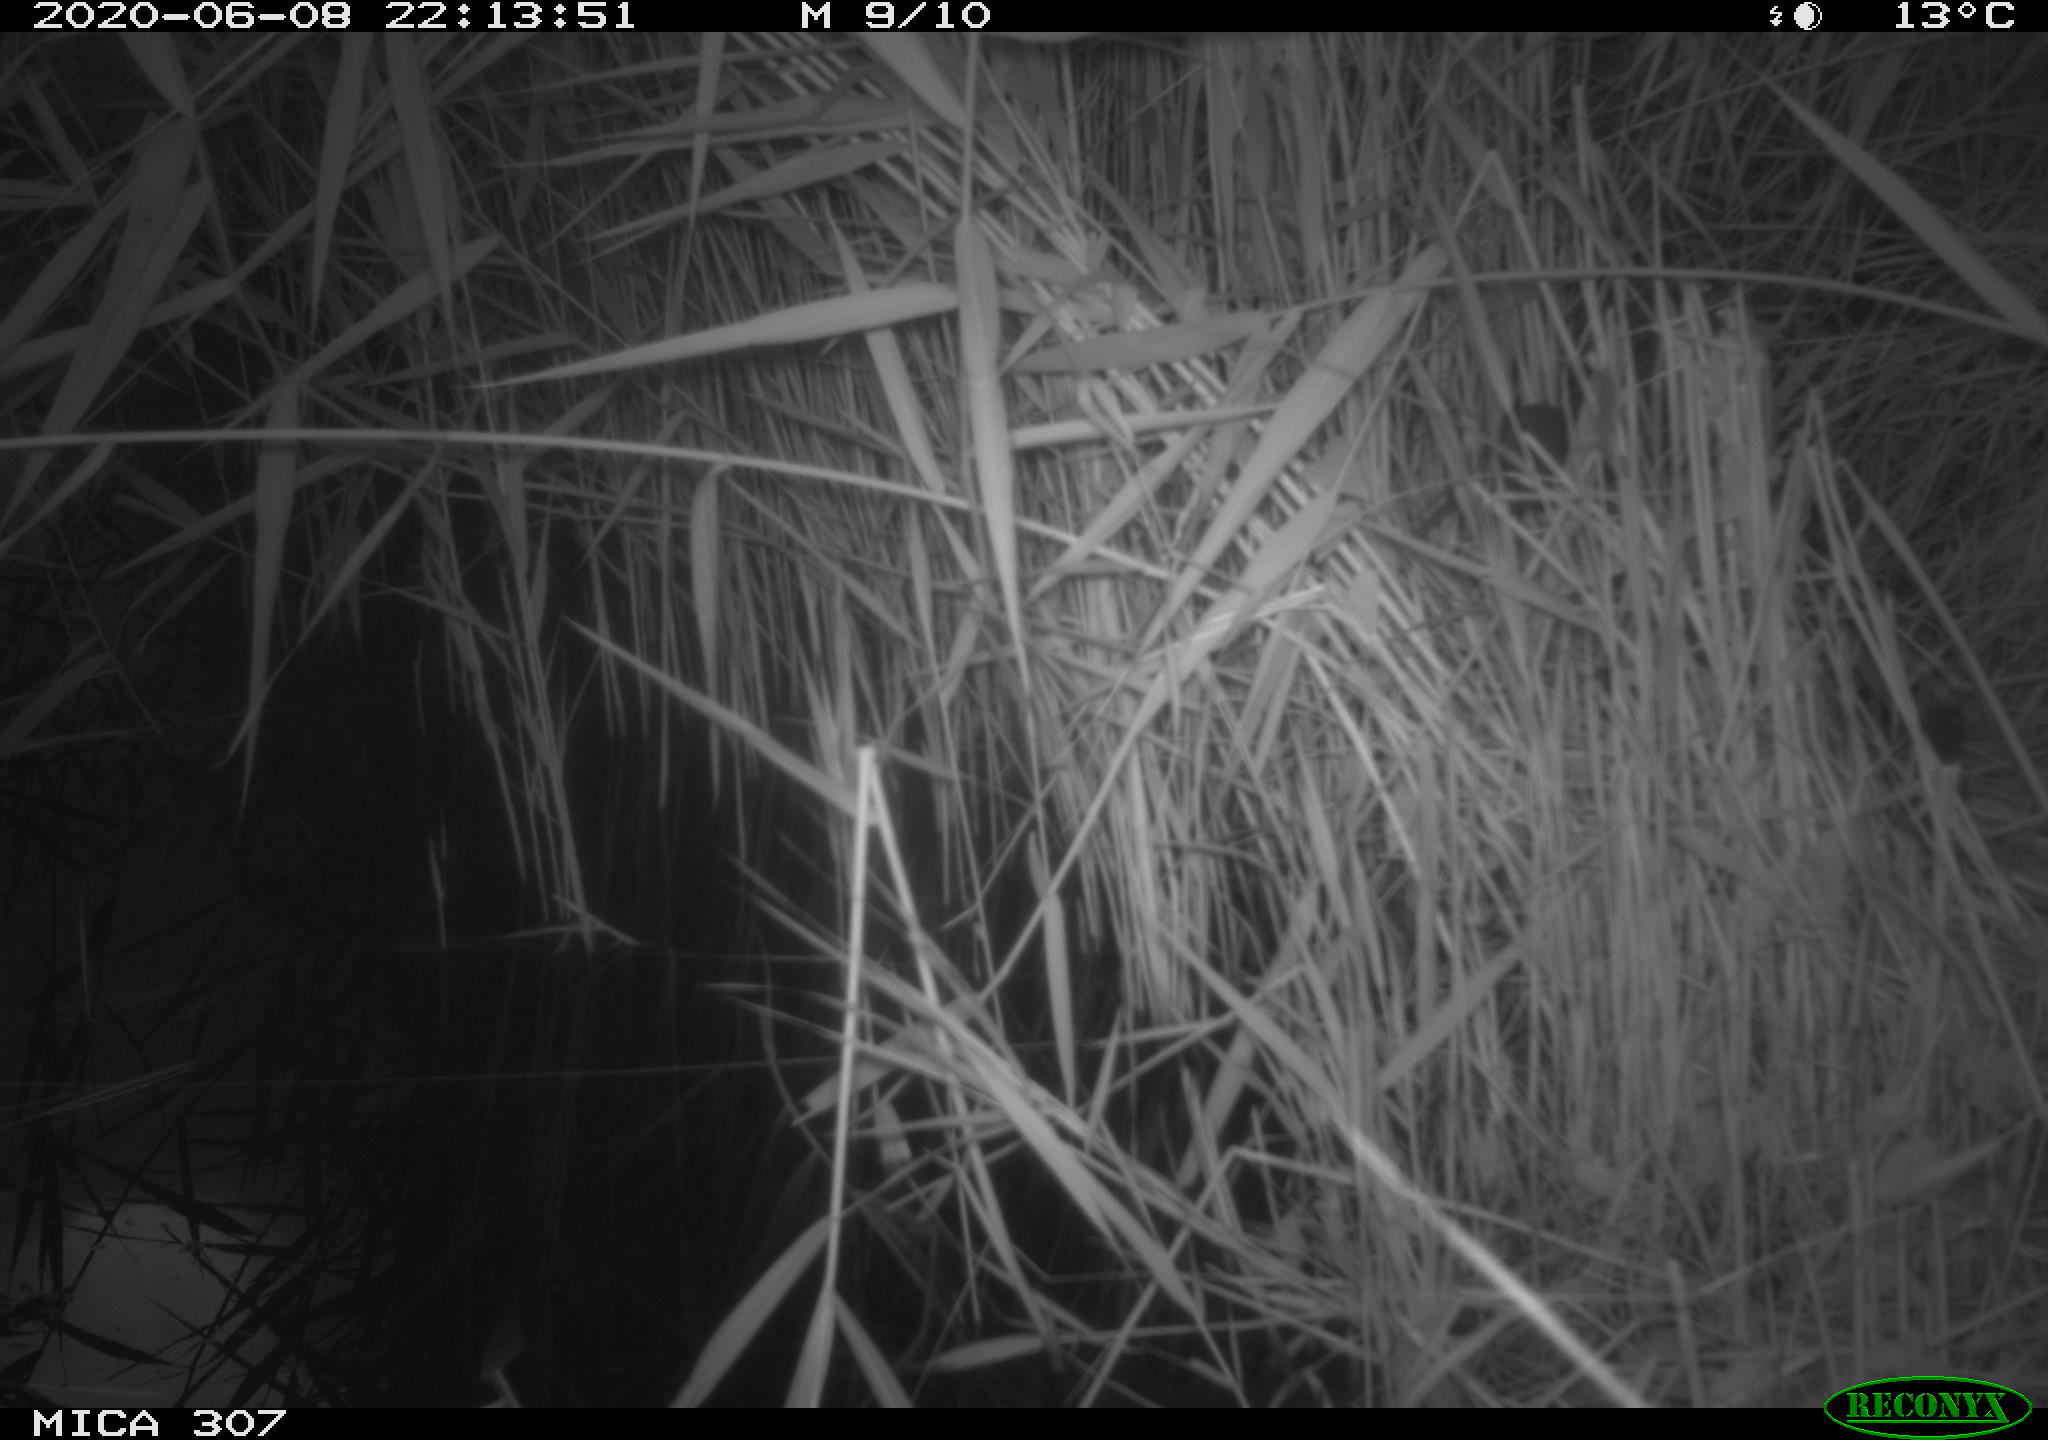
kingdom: Animalia
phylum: Chordata
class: Mammalia
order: Rodentia
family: Muridae
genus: Rattus
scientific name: Rattus norvegicus
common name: Brown rat
